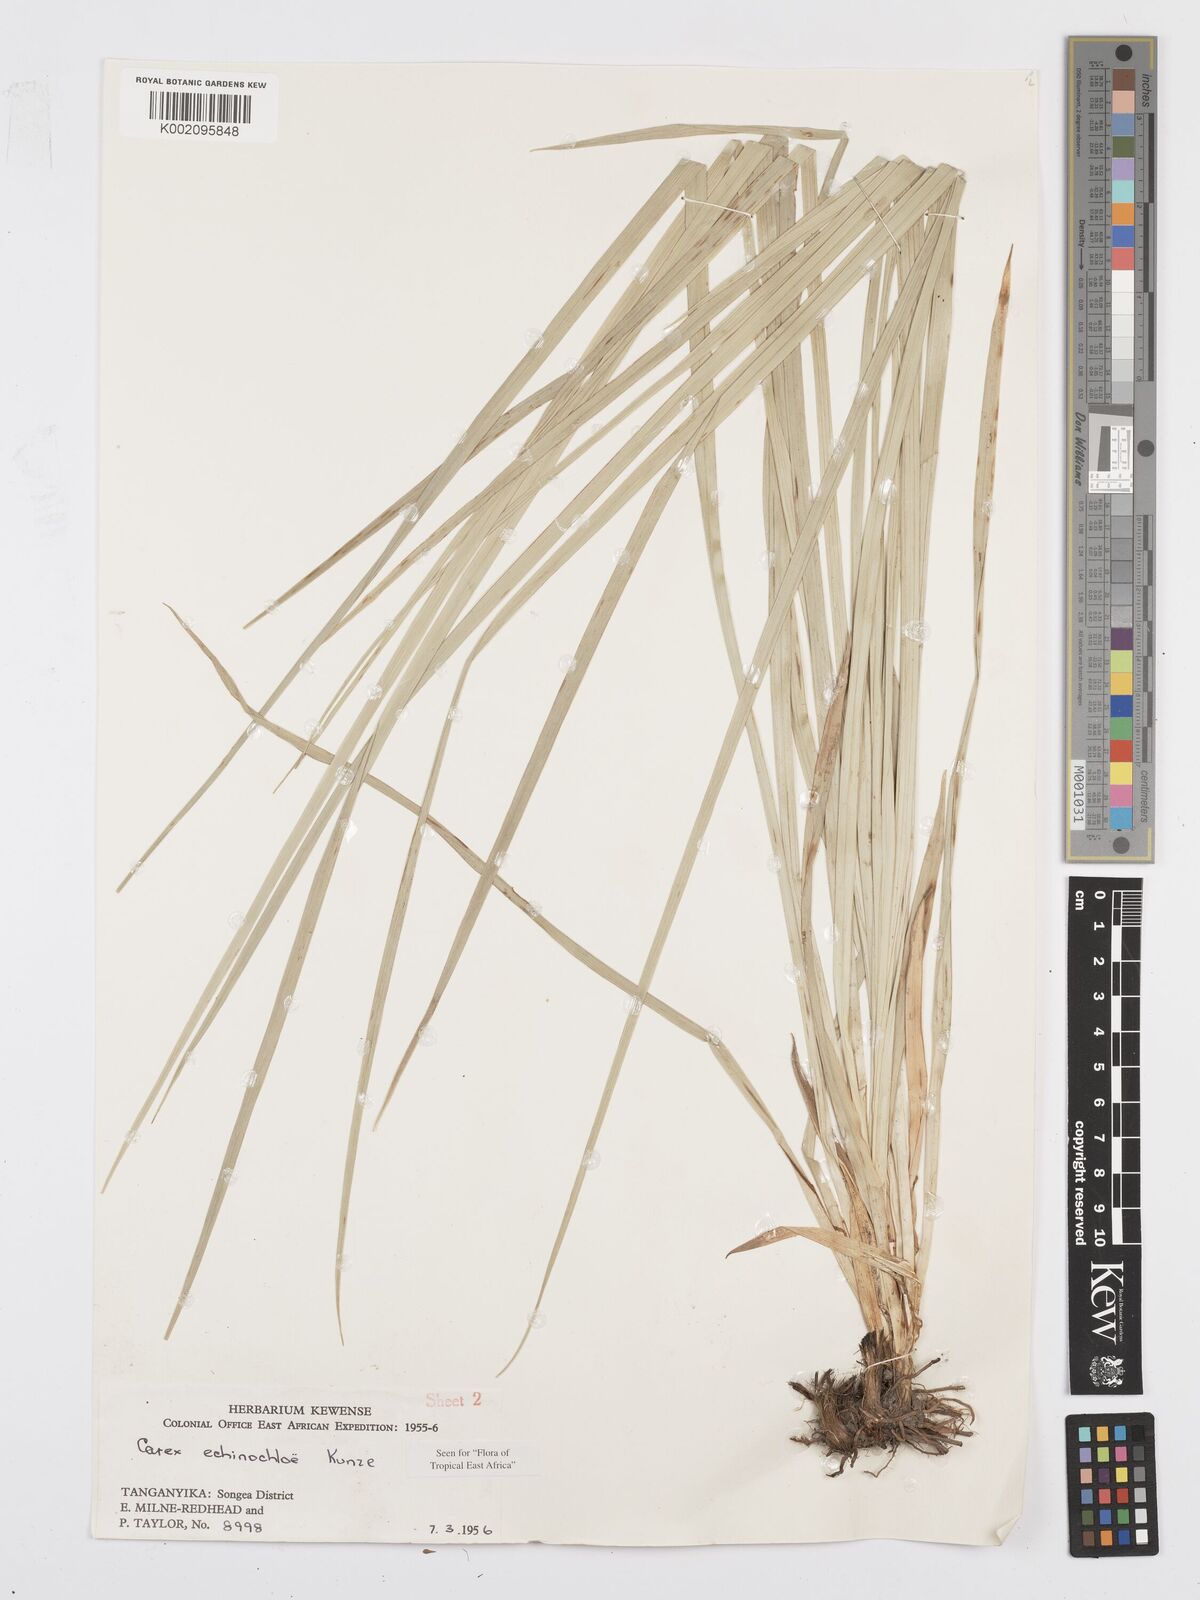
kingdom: Plantae
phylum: Tracheophyta
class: Liliopsida
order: Poales
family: Cyperaceae
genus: Carex
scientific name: Carex echinochloe
